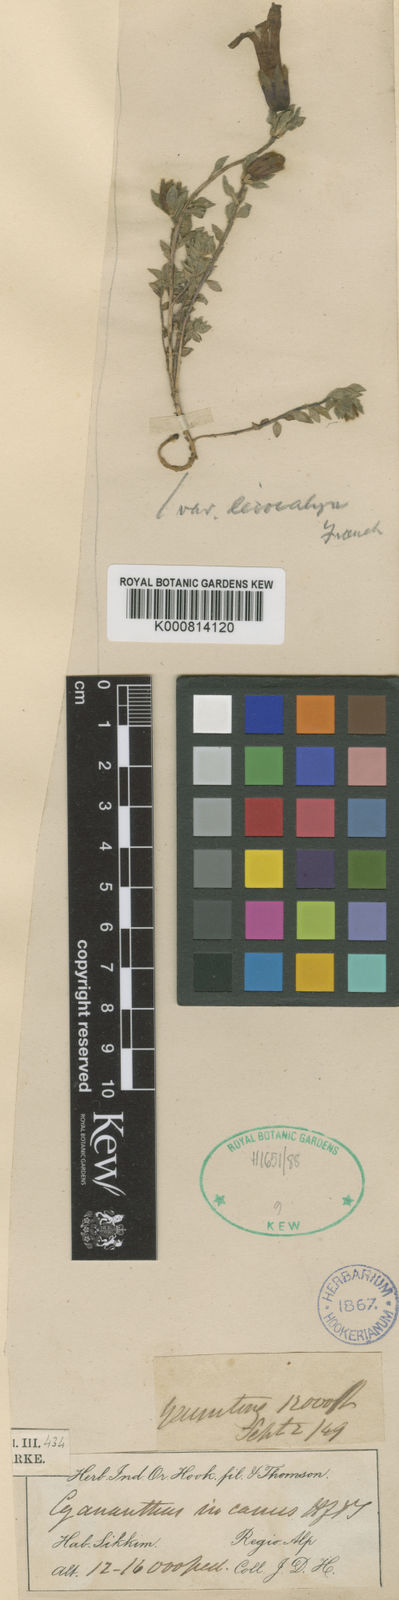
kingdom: Plantae
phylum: Tracheophyta
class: Magnoliopsida
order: Asterales
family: Campanulaceae
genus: Cyananthus
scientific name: Cyananthus incanus
